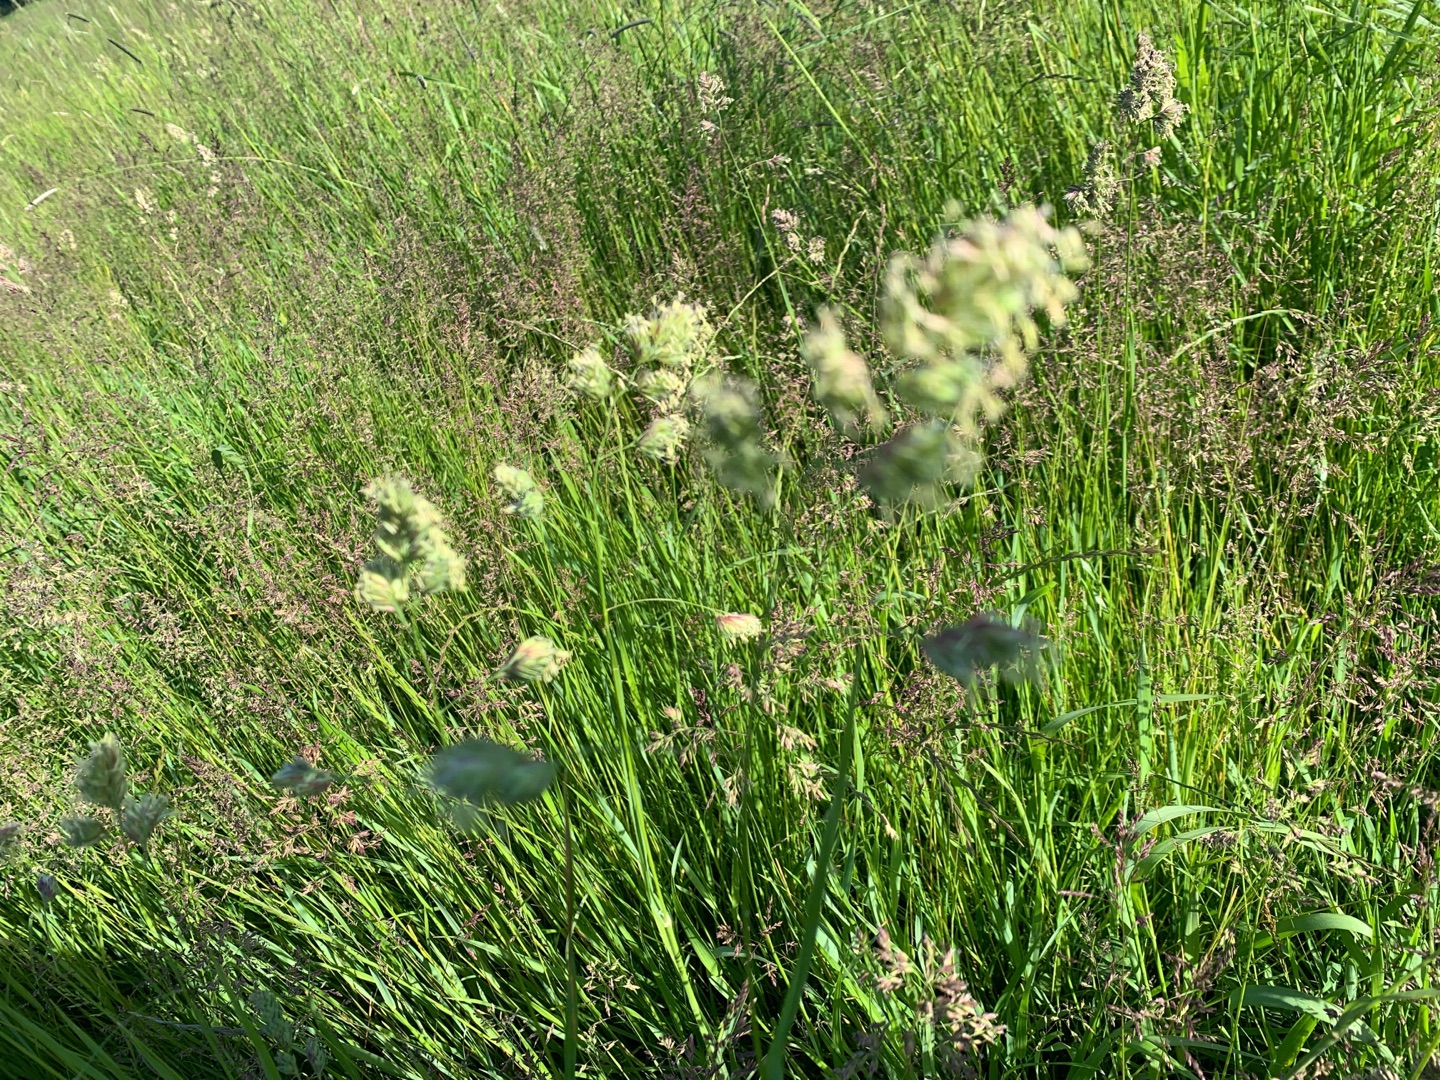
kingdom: Plantae
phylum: Tracheophyta
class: Liliopsida
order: Poales
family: Poaceae
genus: Dactylis
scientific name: Dactylis glomerata
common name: Almindelig hundegræs
